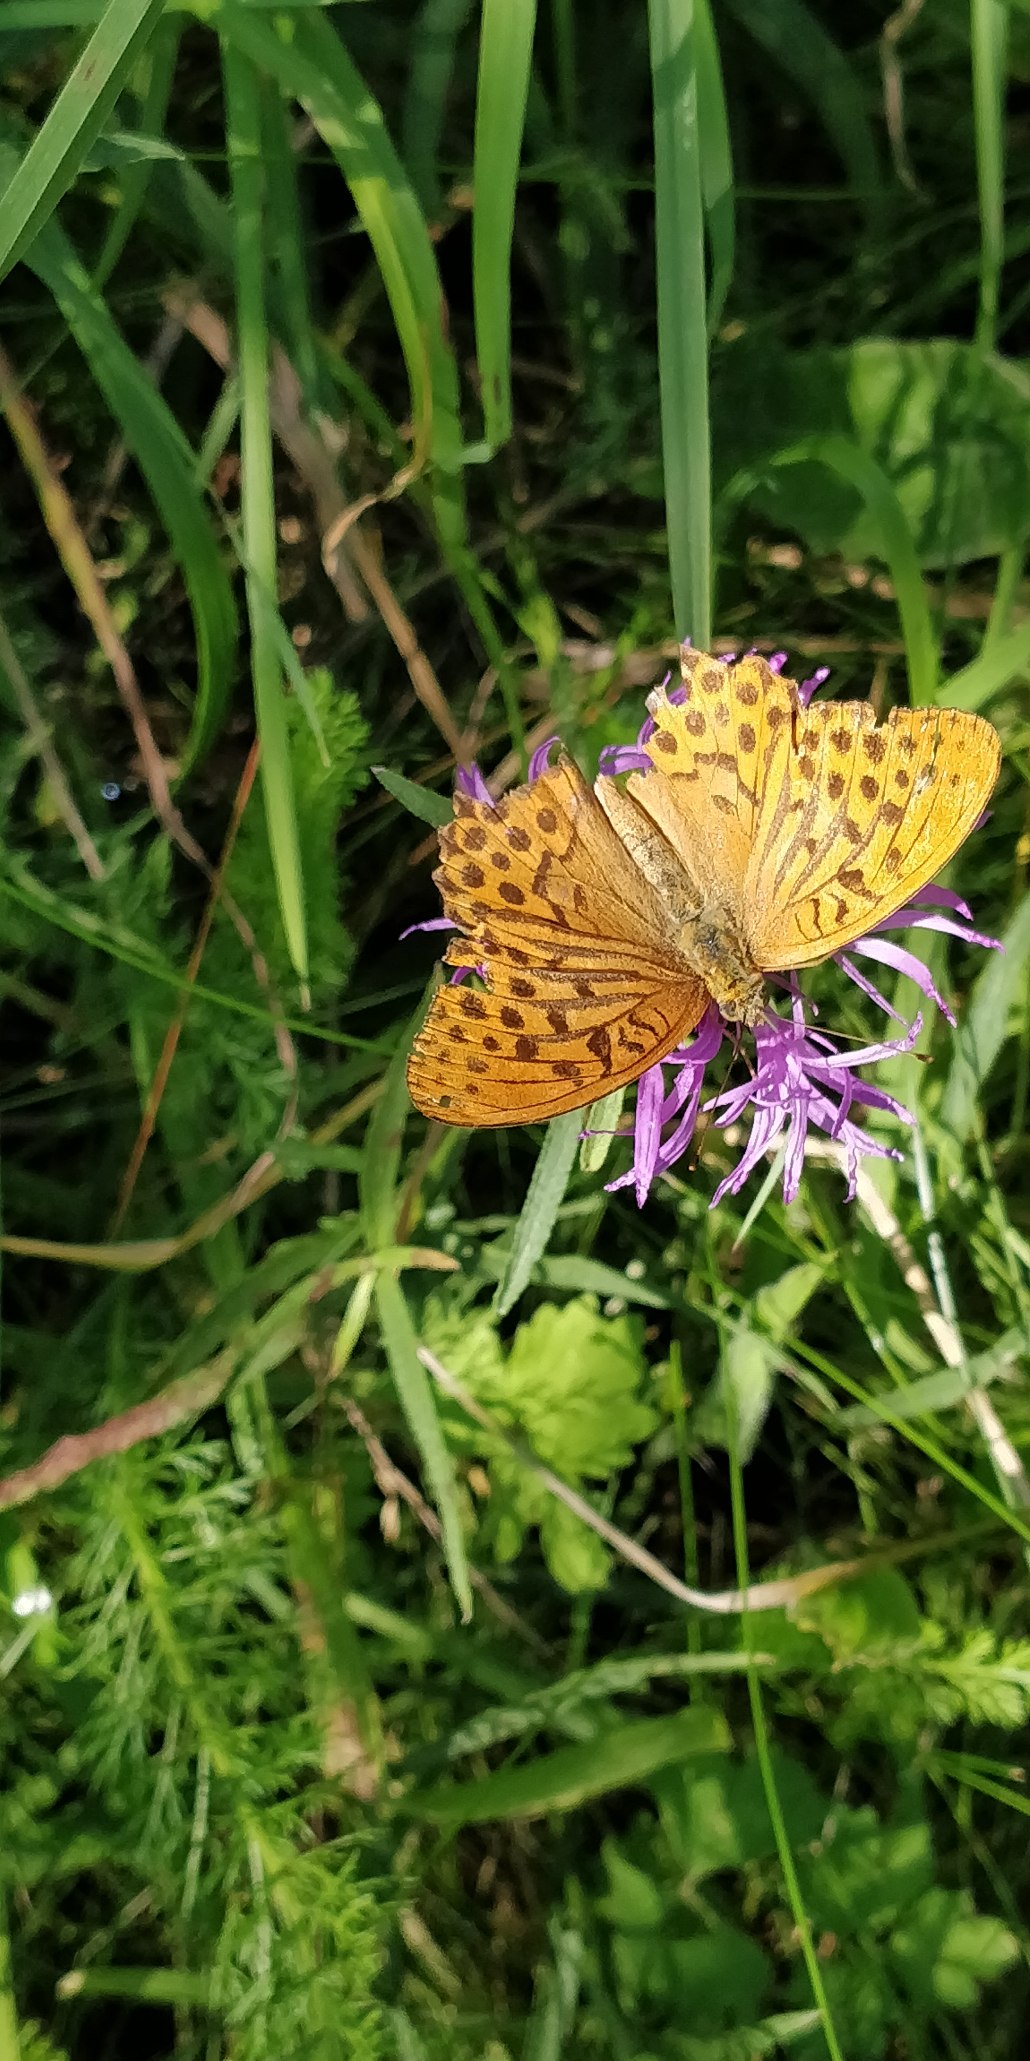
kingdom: Animalia
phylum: Arthropoda
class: Insecta
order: Lepidoptera
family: Nymphalidae
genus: Argynnis
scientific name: Argynnis paphia
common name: Kejserkåbe
